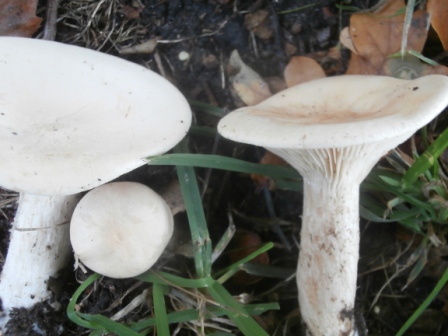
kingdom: Fungi
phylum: Basidiomycota
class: Agaricomycetes
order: Agaricales
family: Tricholomataceae
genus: Infundibulicybe
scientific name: Infundibulicybe geotropa
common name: stor tragthat
